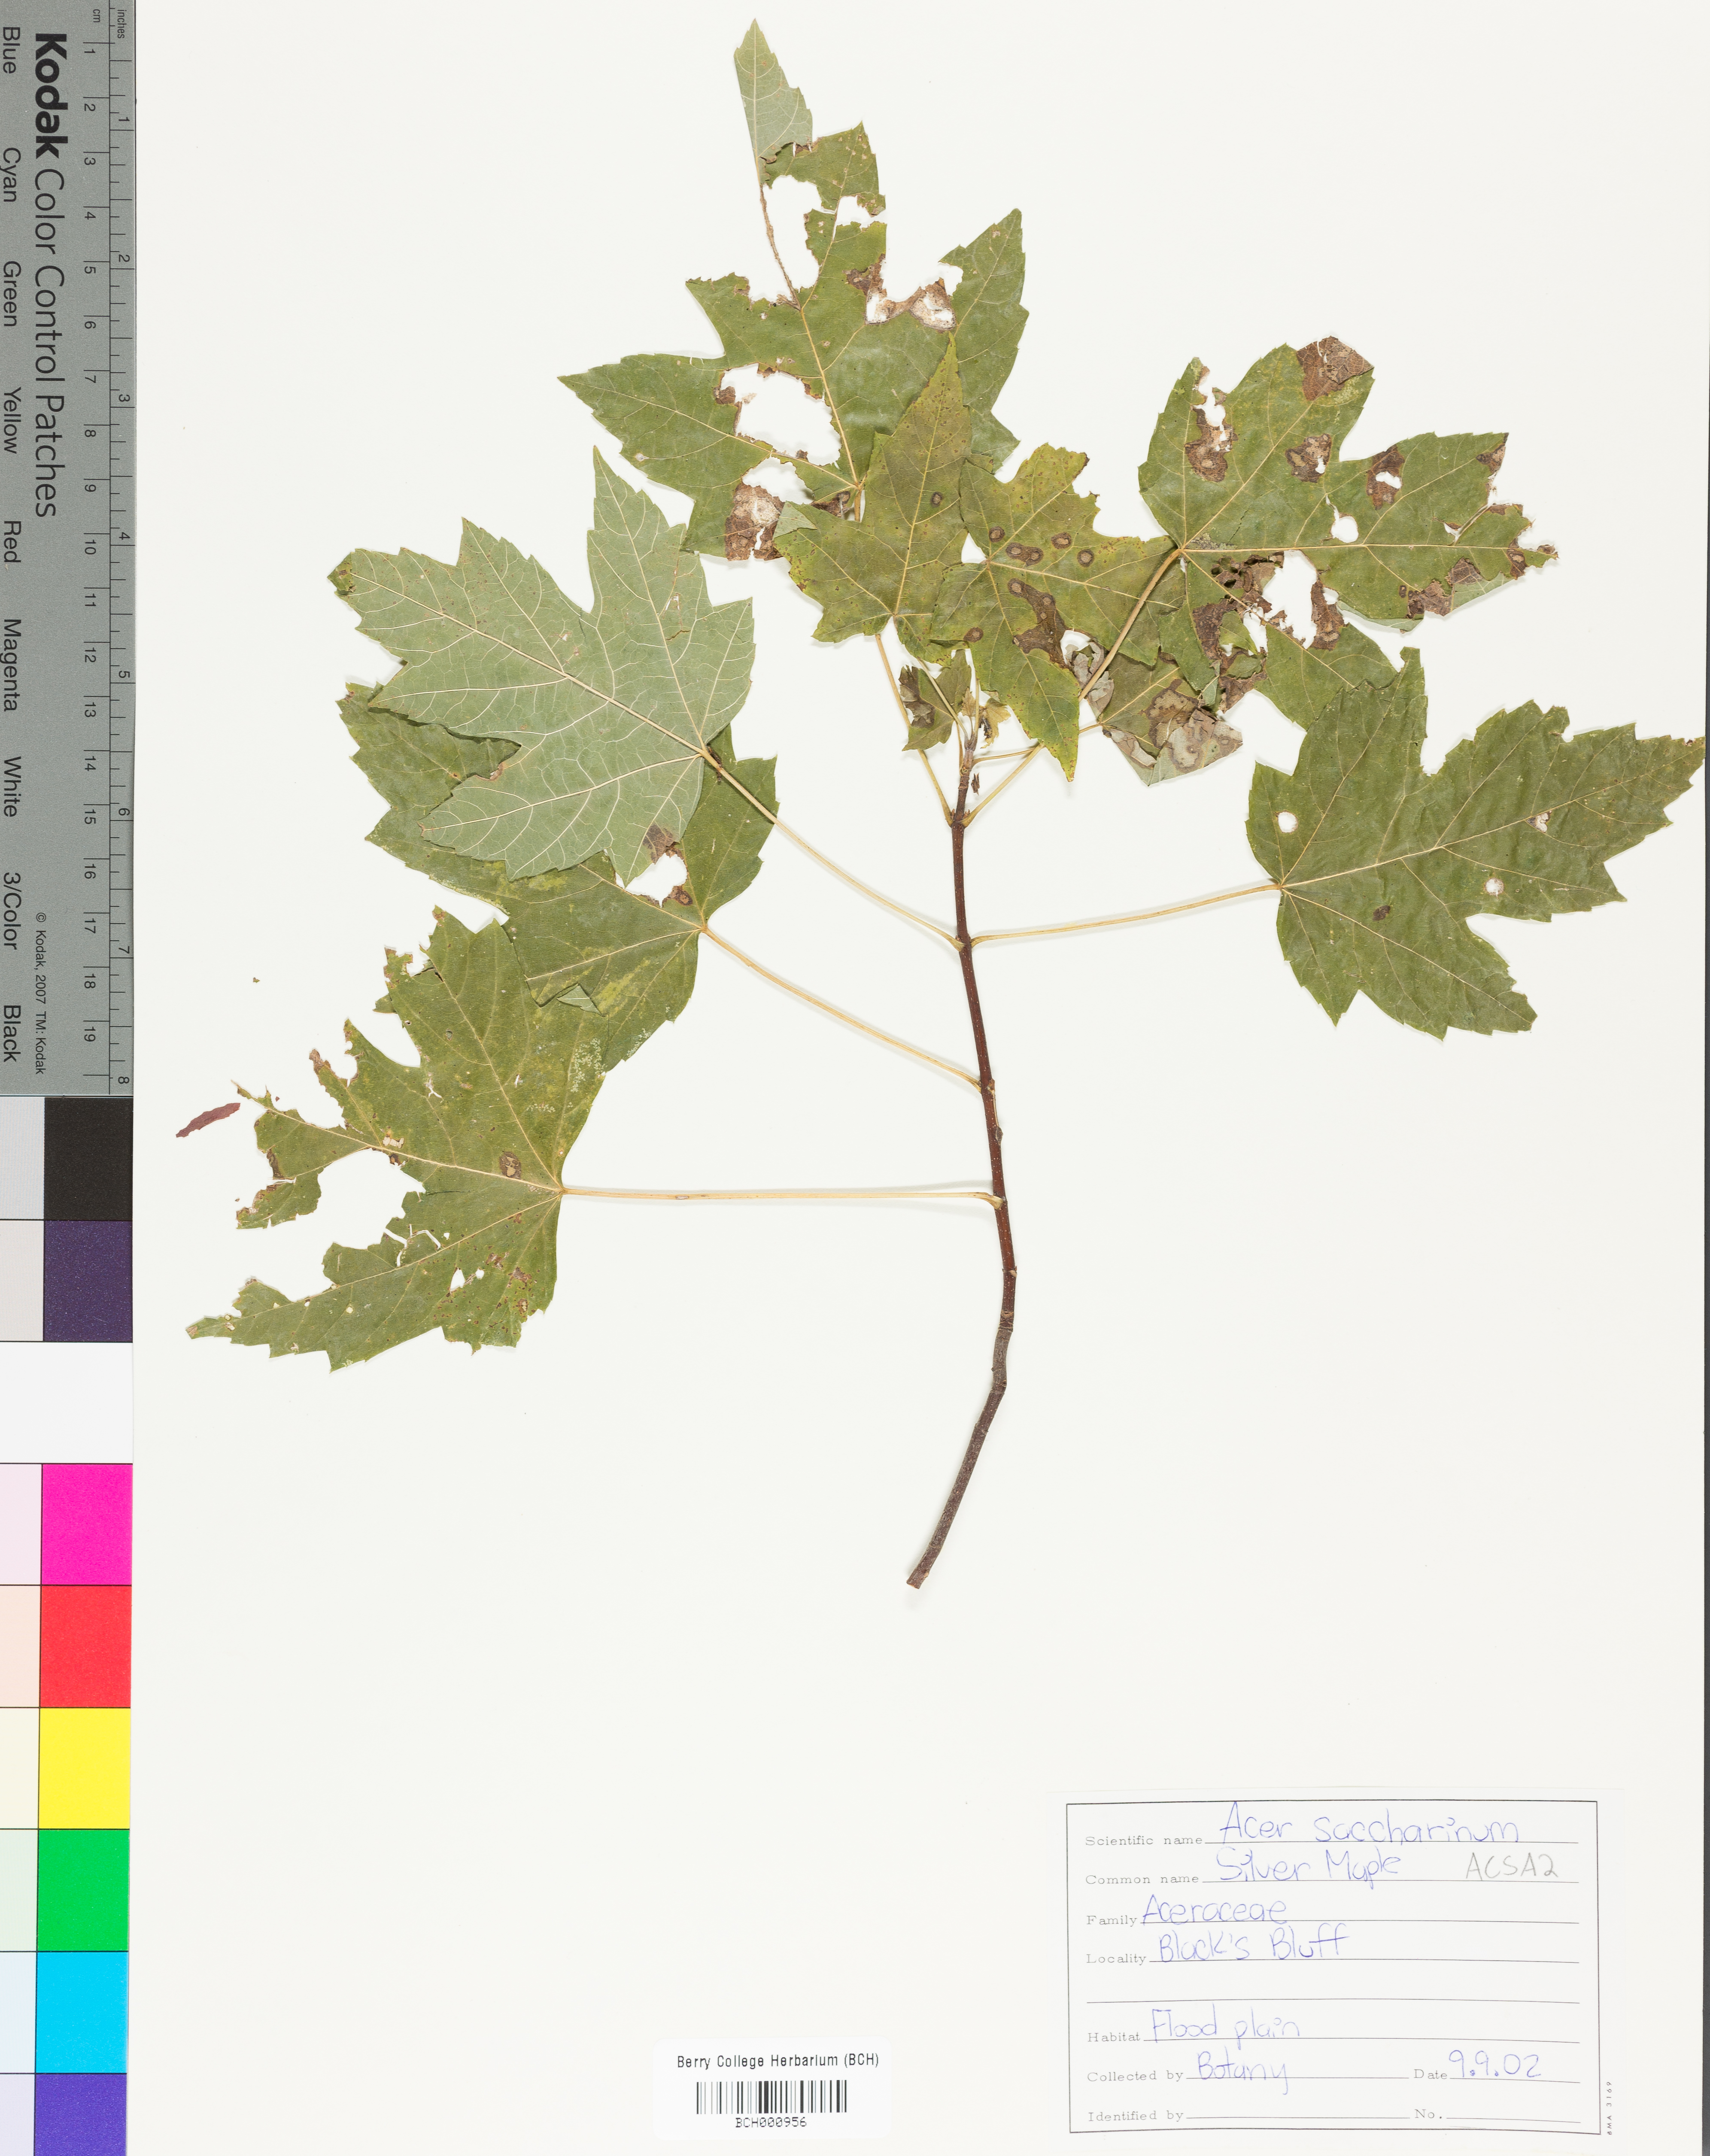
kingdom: Plantae
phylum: Tracheophyta
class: Magnoliopsida
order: Sapindales
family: Sapindaceae
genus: Acer
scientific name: Acer saccharinum
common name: Silver maple
